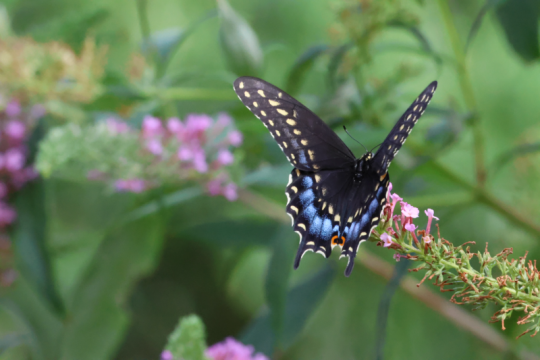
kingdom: Animalia
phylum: Arthropoda
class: Insecta
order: Lepidoptera
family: Papilionidae
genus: Papilio
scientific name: Papilio polyxenes
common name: Black Swallowtail
